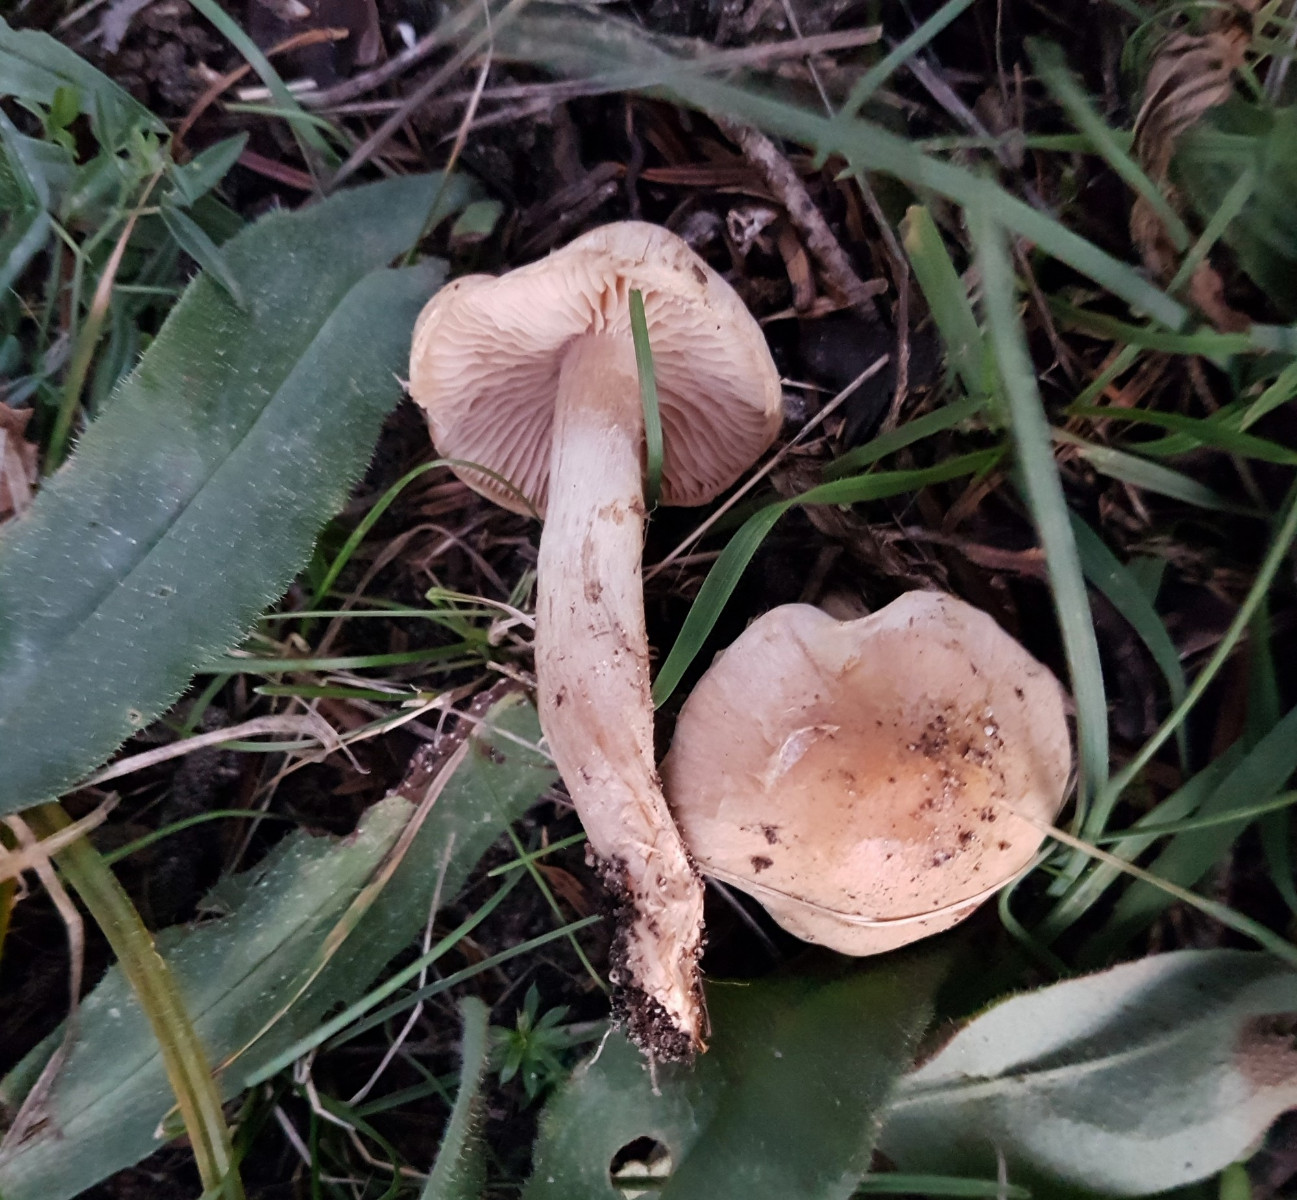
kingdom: Fungi
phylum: Basidiomycota
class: Agaricomycetes
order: Agaricales
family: Hymenogastraceae
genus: Hebeloma
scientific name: Hebeloma sacchariolens
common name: sødtduftende tåreblad
